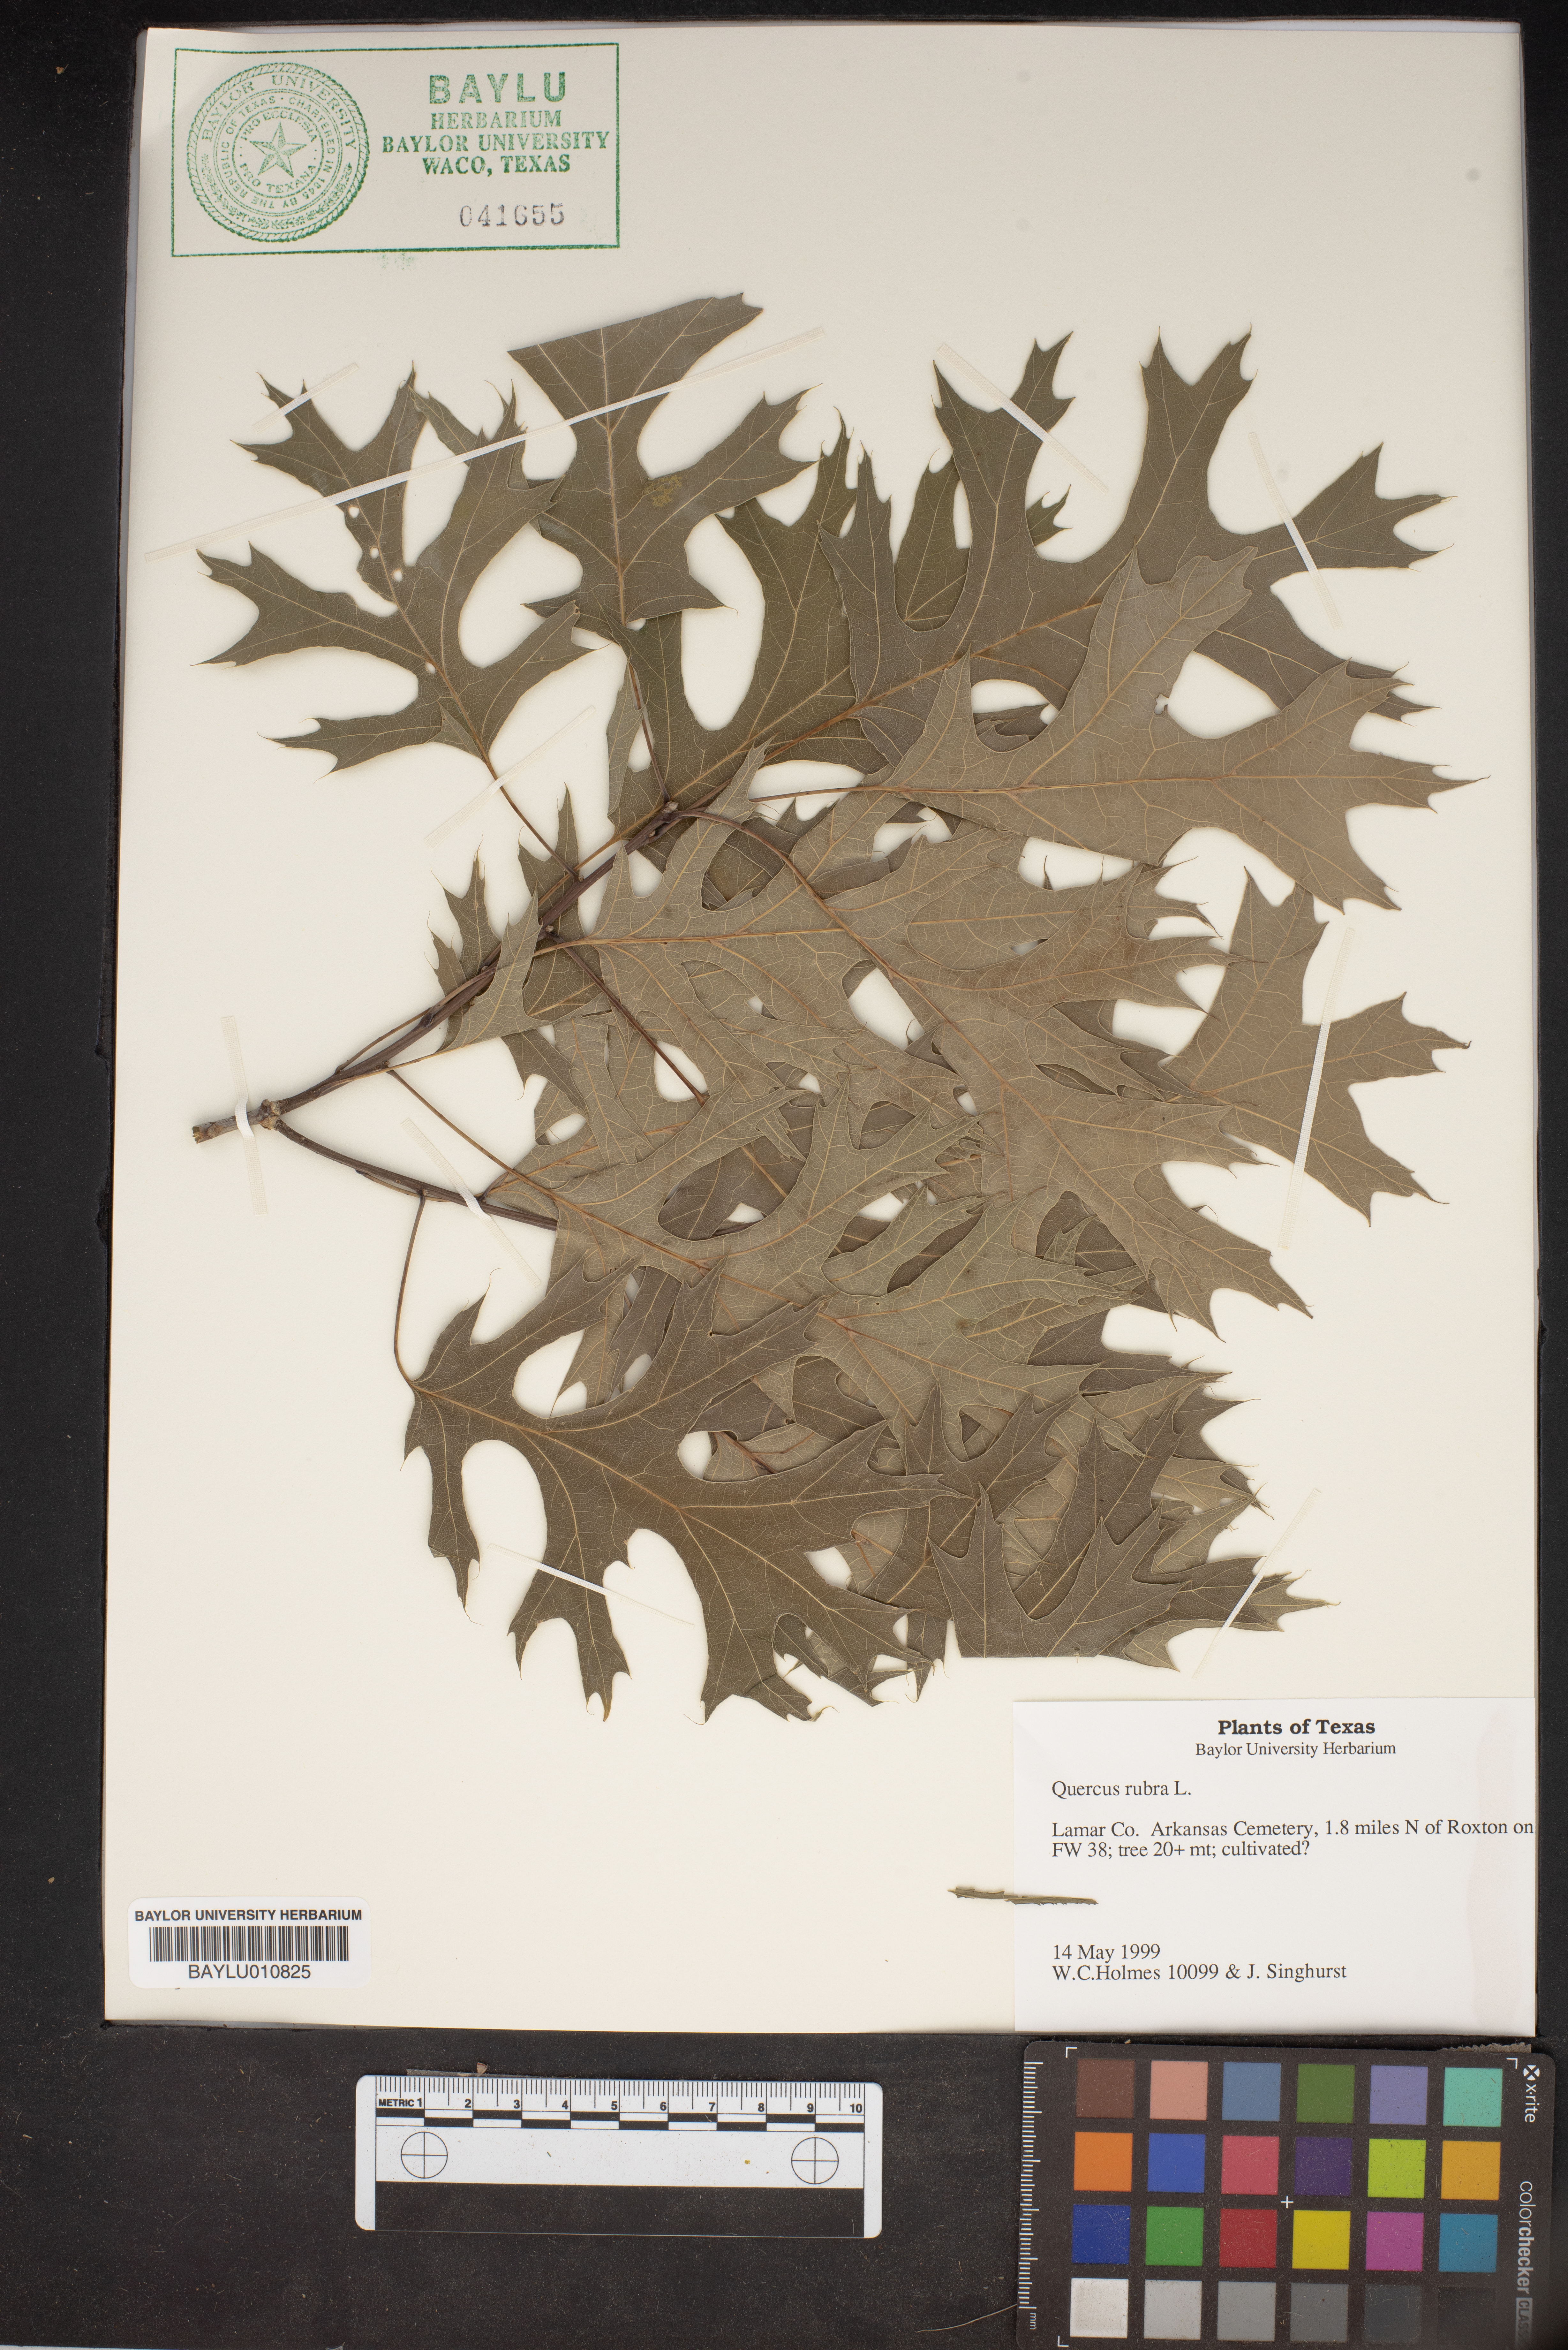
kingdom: Plantae
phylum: Tracheophyta
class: Magnoliopsida
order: Fagales
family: Fagaceae
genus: Quercus
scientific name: Quercus rubra
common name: Red oak
